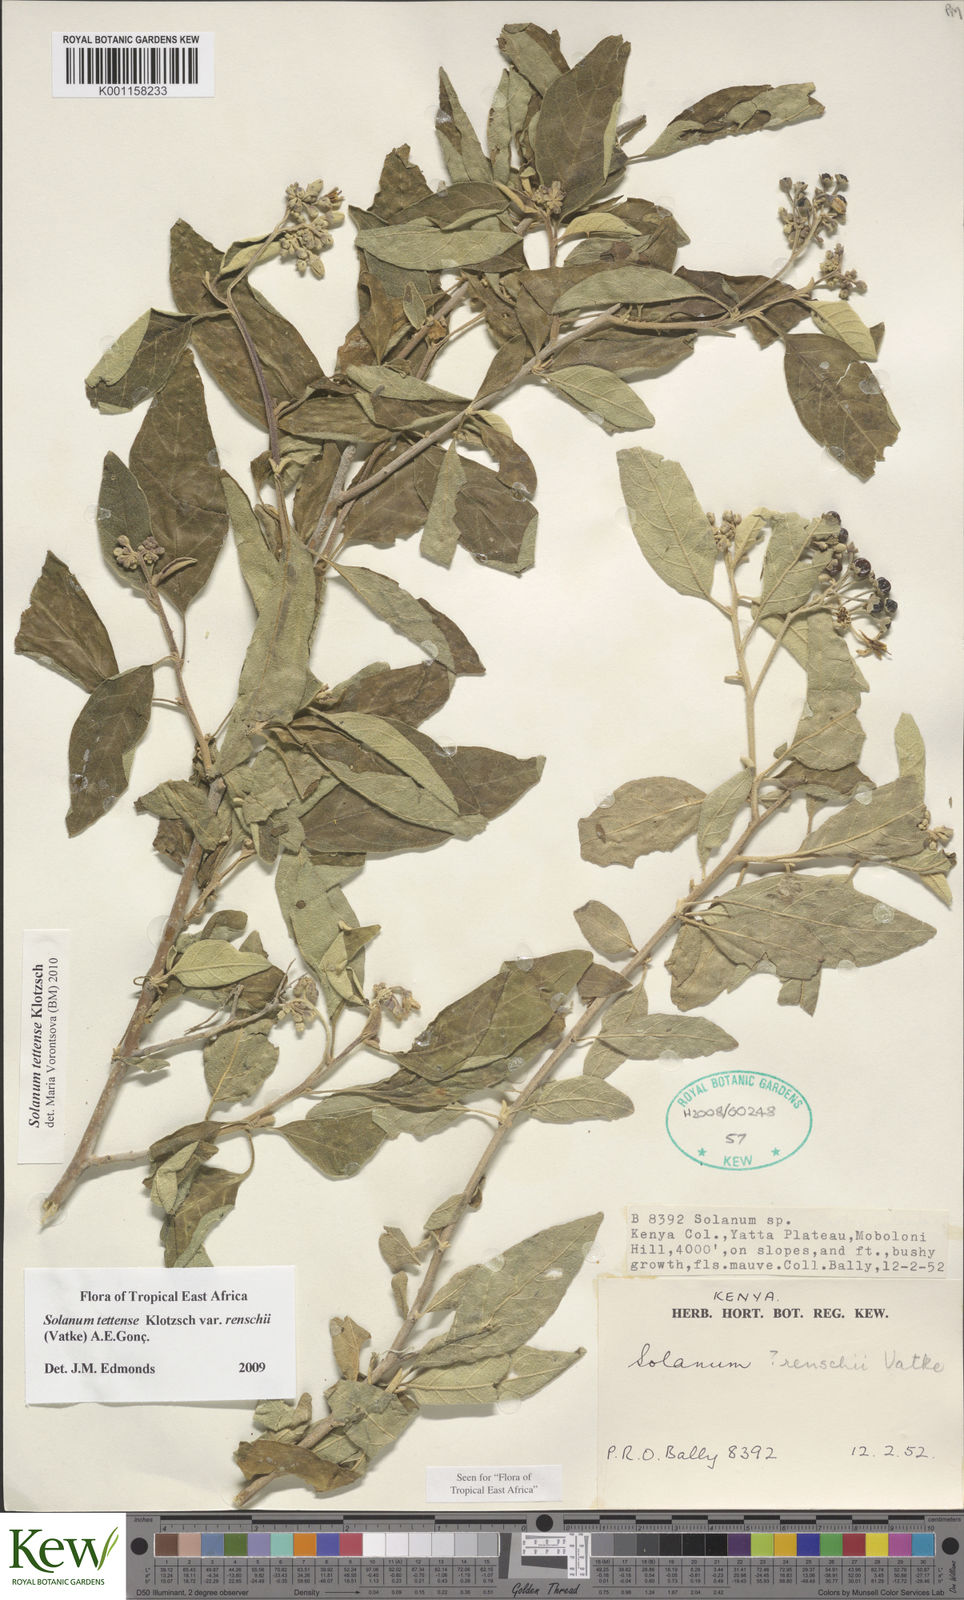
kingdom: Plantae
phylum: Tracheophyta
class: Magnoliopsida
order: Solanales
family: Solanaceae
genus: Solanum
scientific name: Solanum tettense
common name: Mozambique bitter apple
